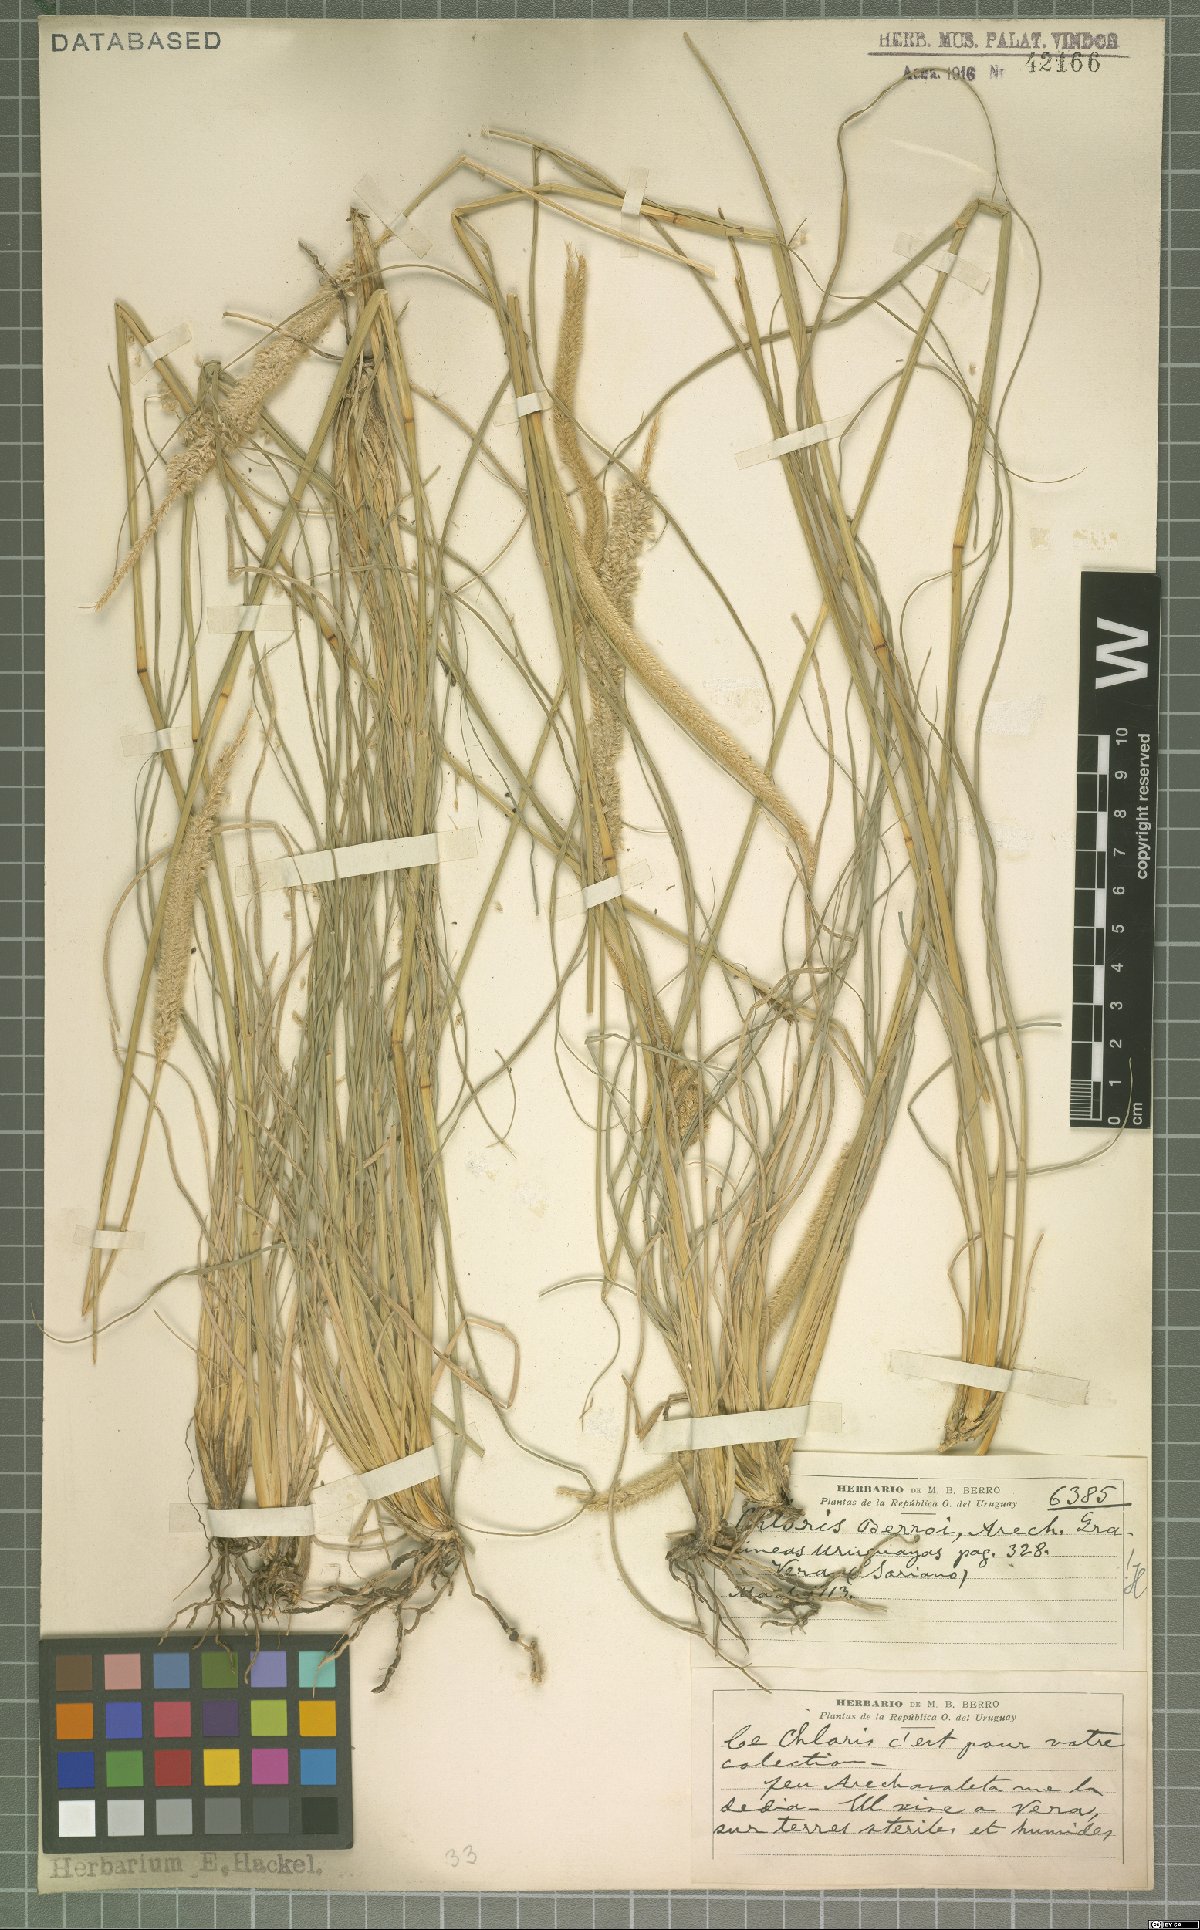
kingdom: Plantae
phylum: Tracheophyta
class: Liliopsida
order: Poales
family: Poaceae
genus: Stapfochloa
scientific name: Stapfochloa berroi
